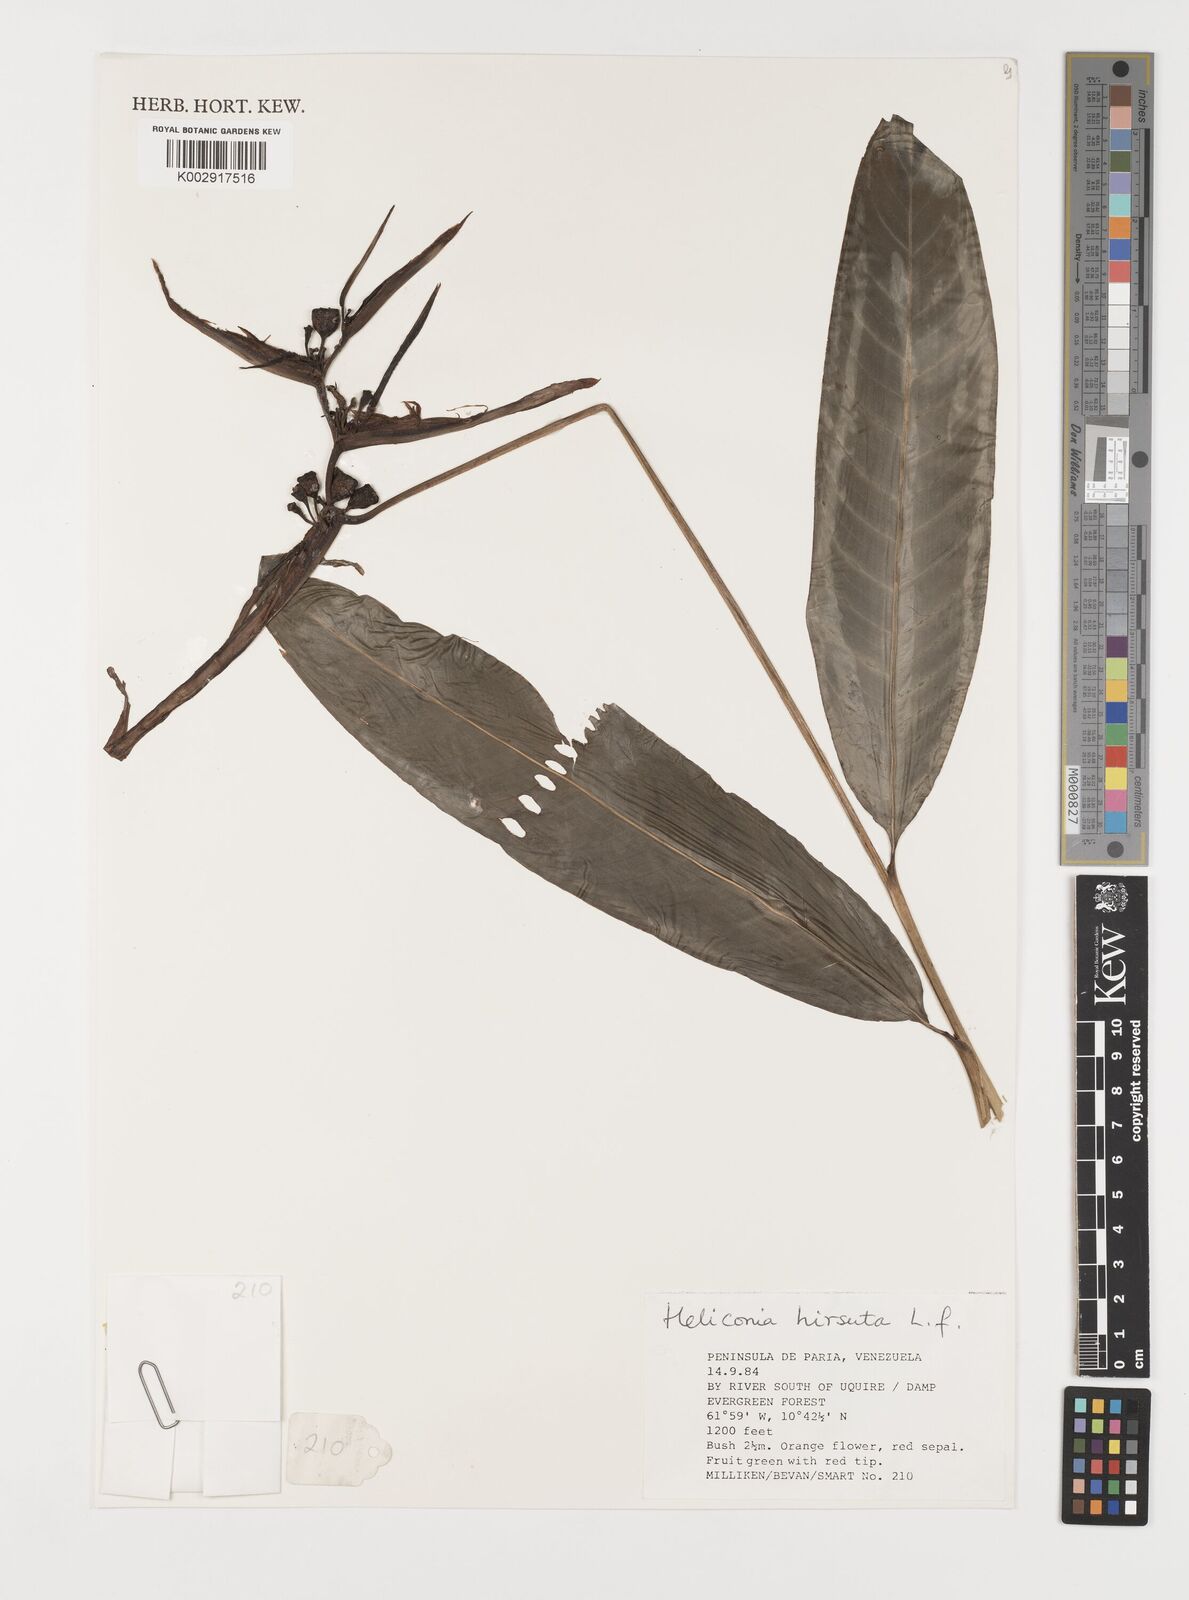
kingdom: Plantae
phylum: Tracheophyta
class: Liliopsida
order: Zingiberales
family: Heliconiaceae
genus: Heliconia
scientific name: Heliconia hirsuta
